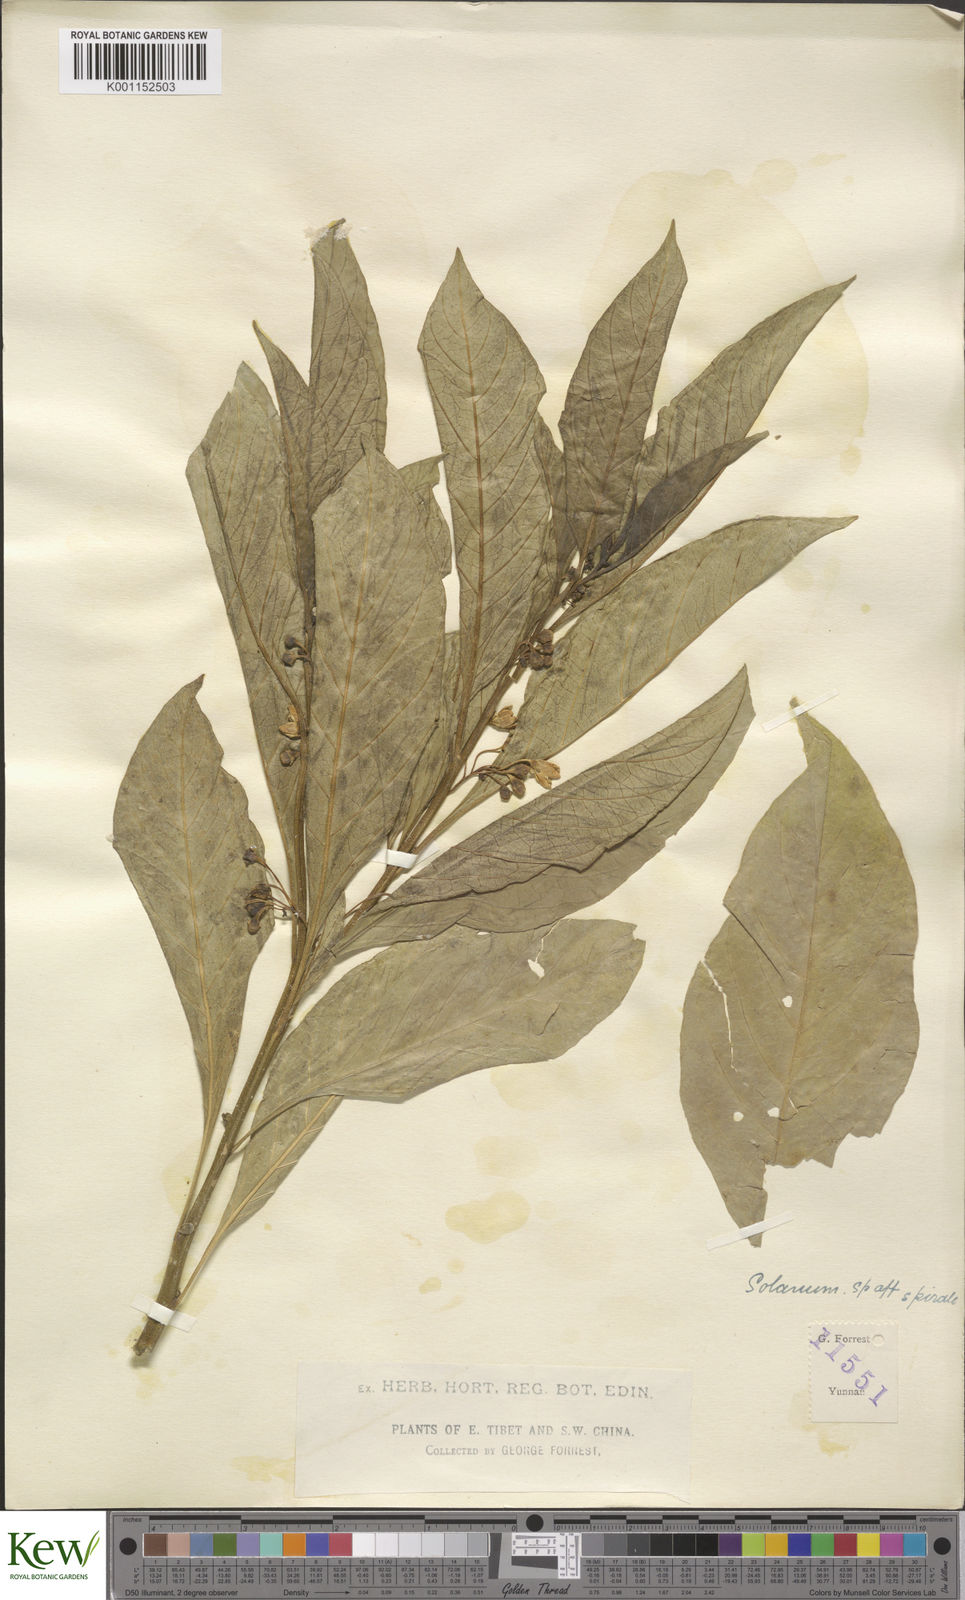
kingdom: Plantae
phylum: Tracheophyta
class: Magnoliopsida
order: Solanales
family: Solanaceae
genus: Solanum
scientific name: Solanum spirale
